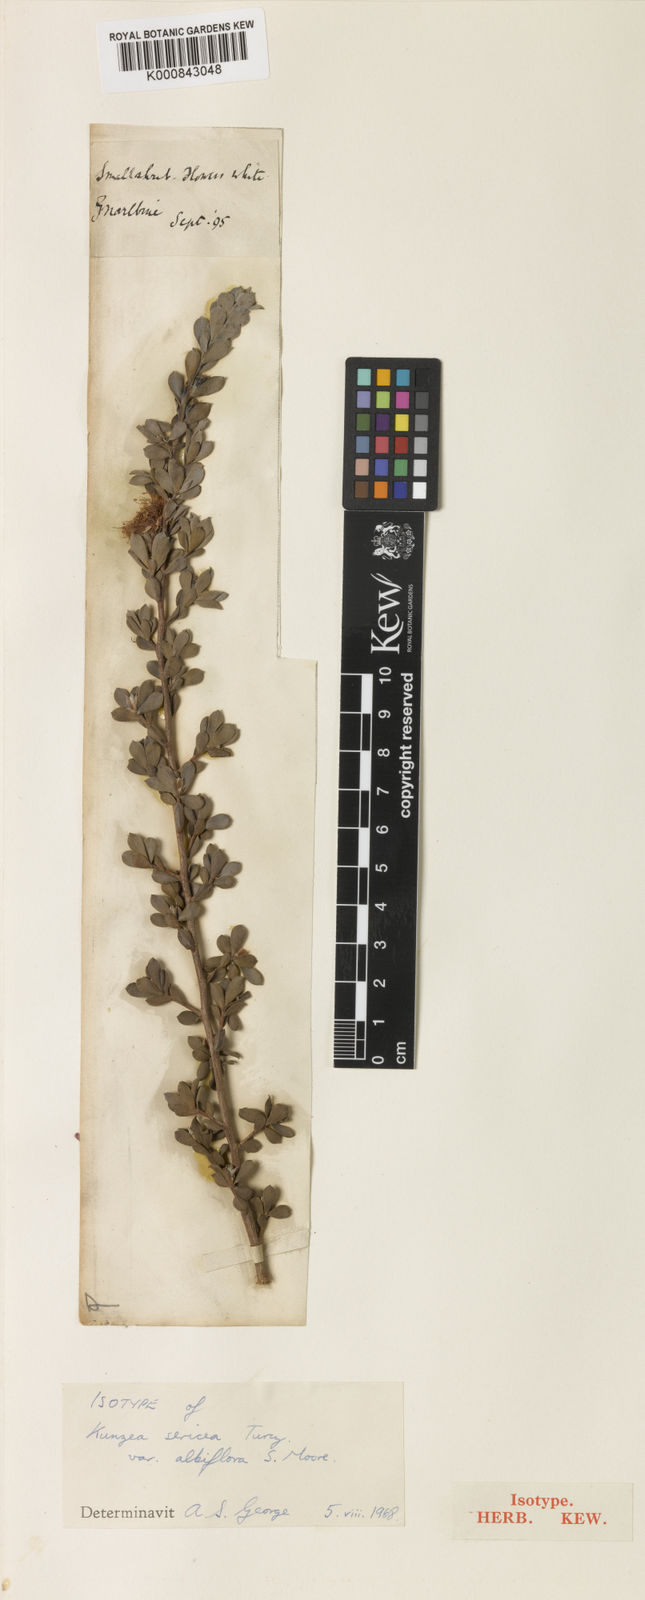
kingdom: Plantae
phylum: Tracheophyta
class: Magnoliopsida
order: Myrtales
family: Myrtaceae
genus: Kunzea
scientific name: Kunzea pulchella
